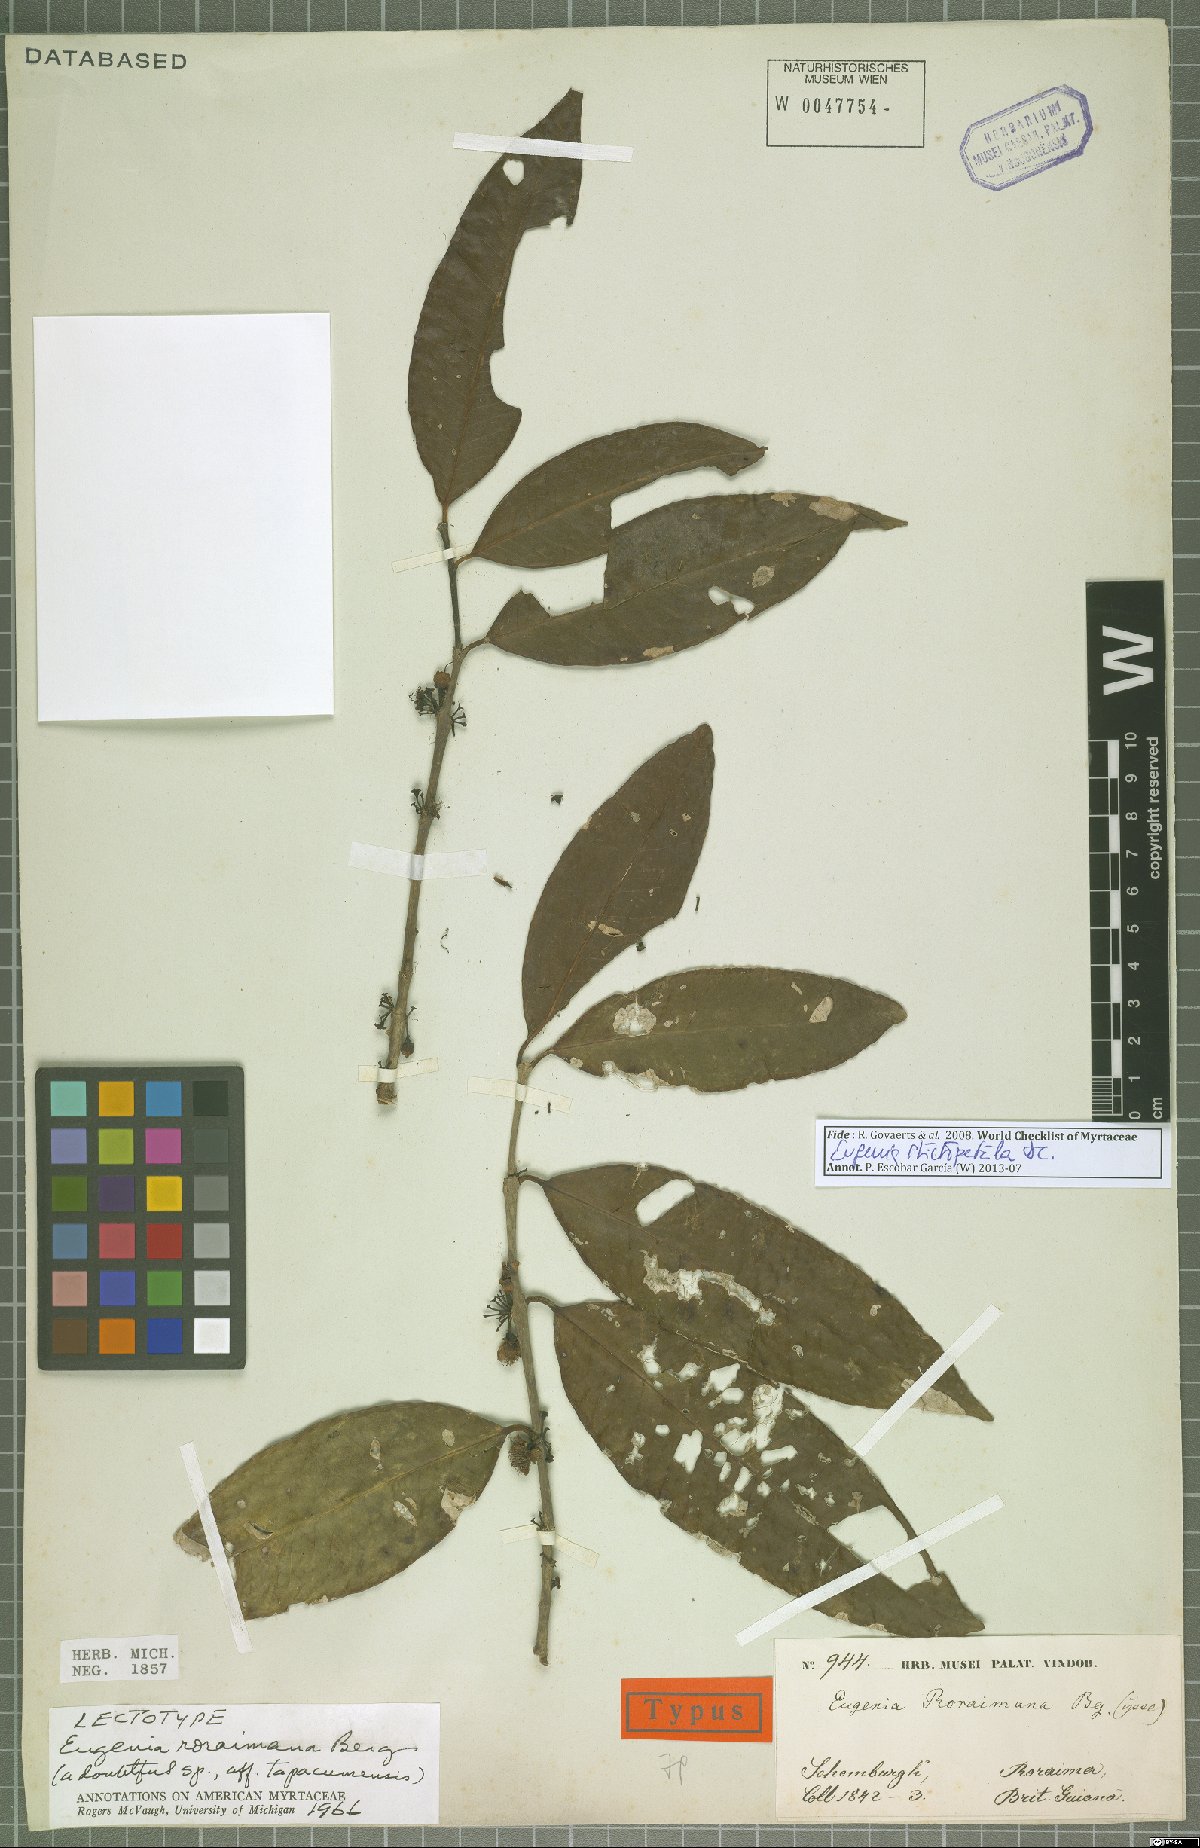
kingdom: Plantae
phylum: Tracheophyta
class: Magnoliopsida
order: Myrtales
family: Myrtaceae
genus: Eugenia
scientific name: Eugenia stictopetala
